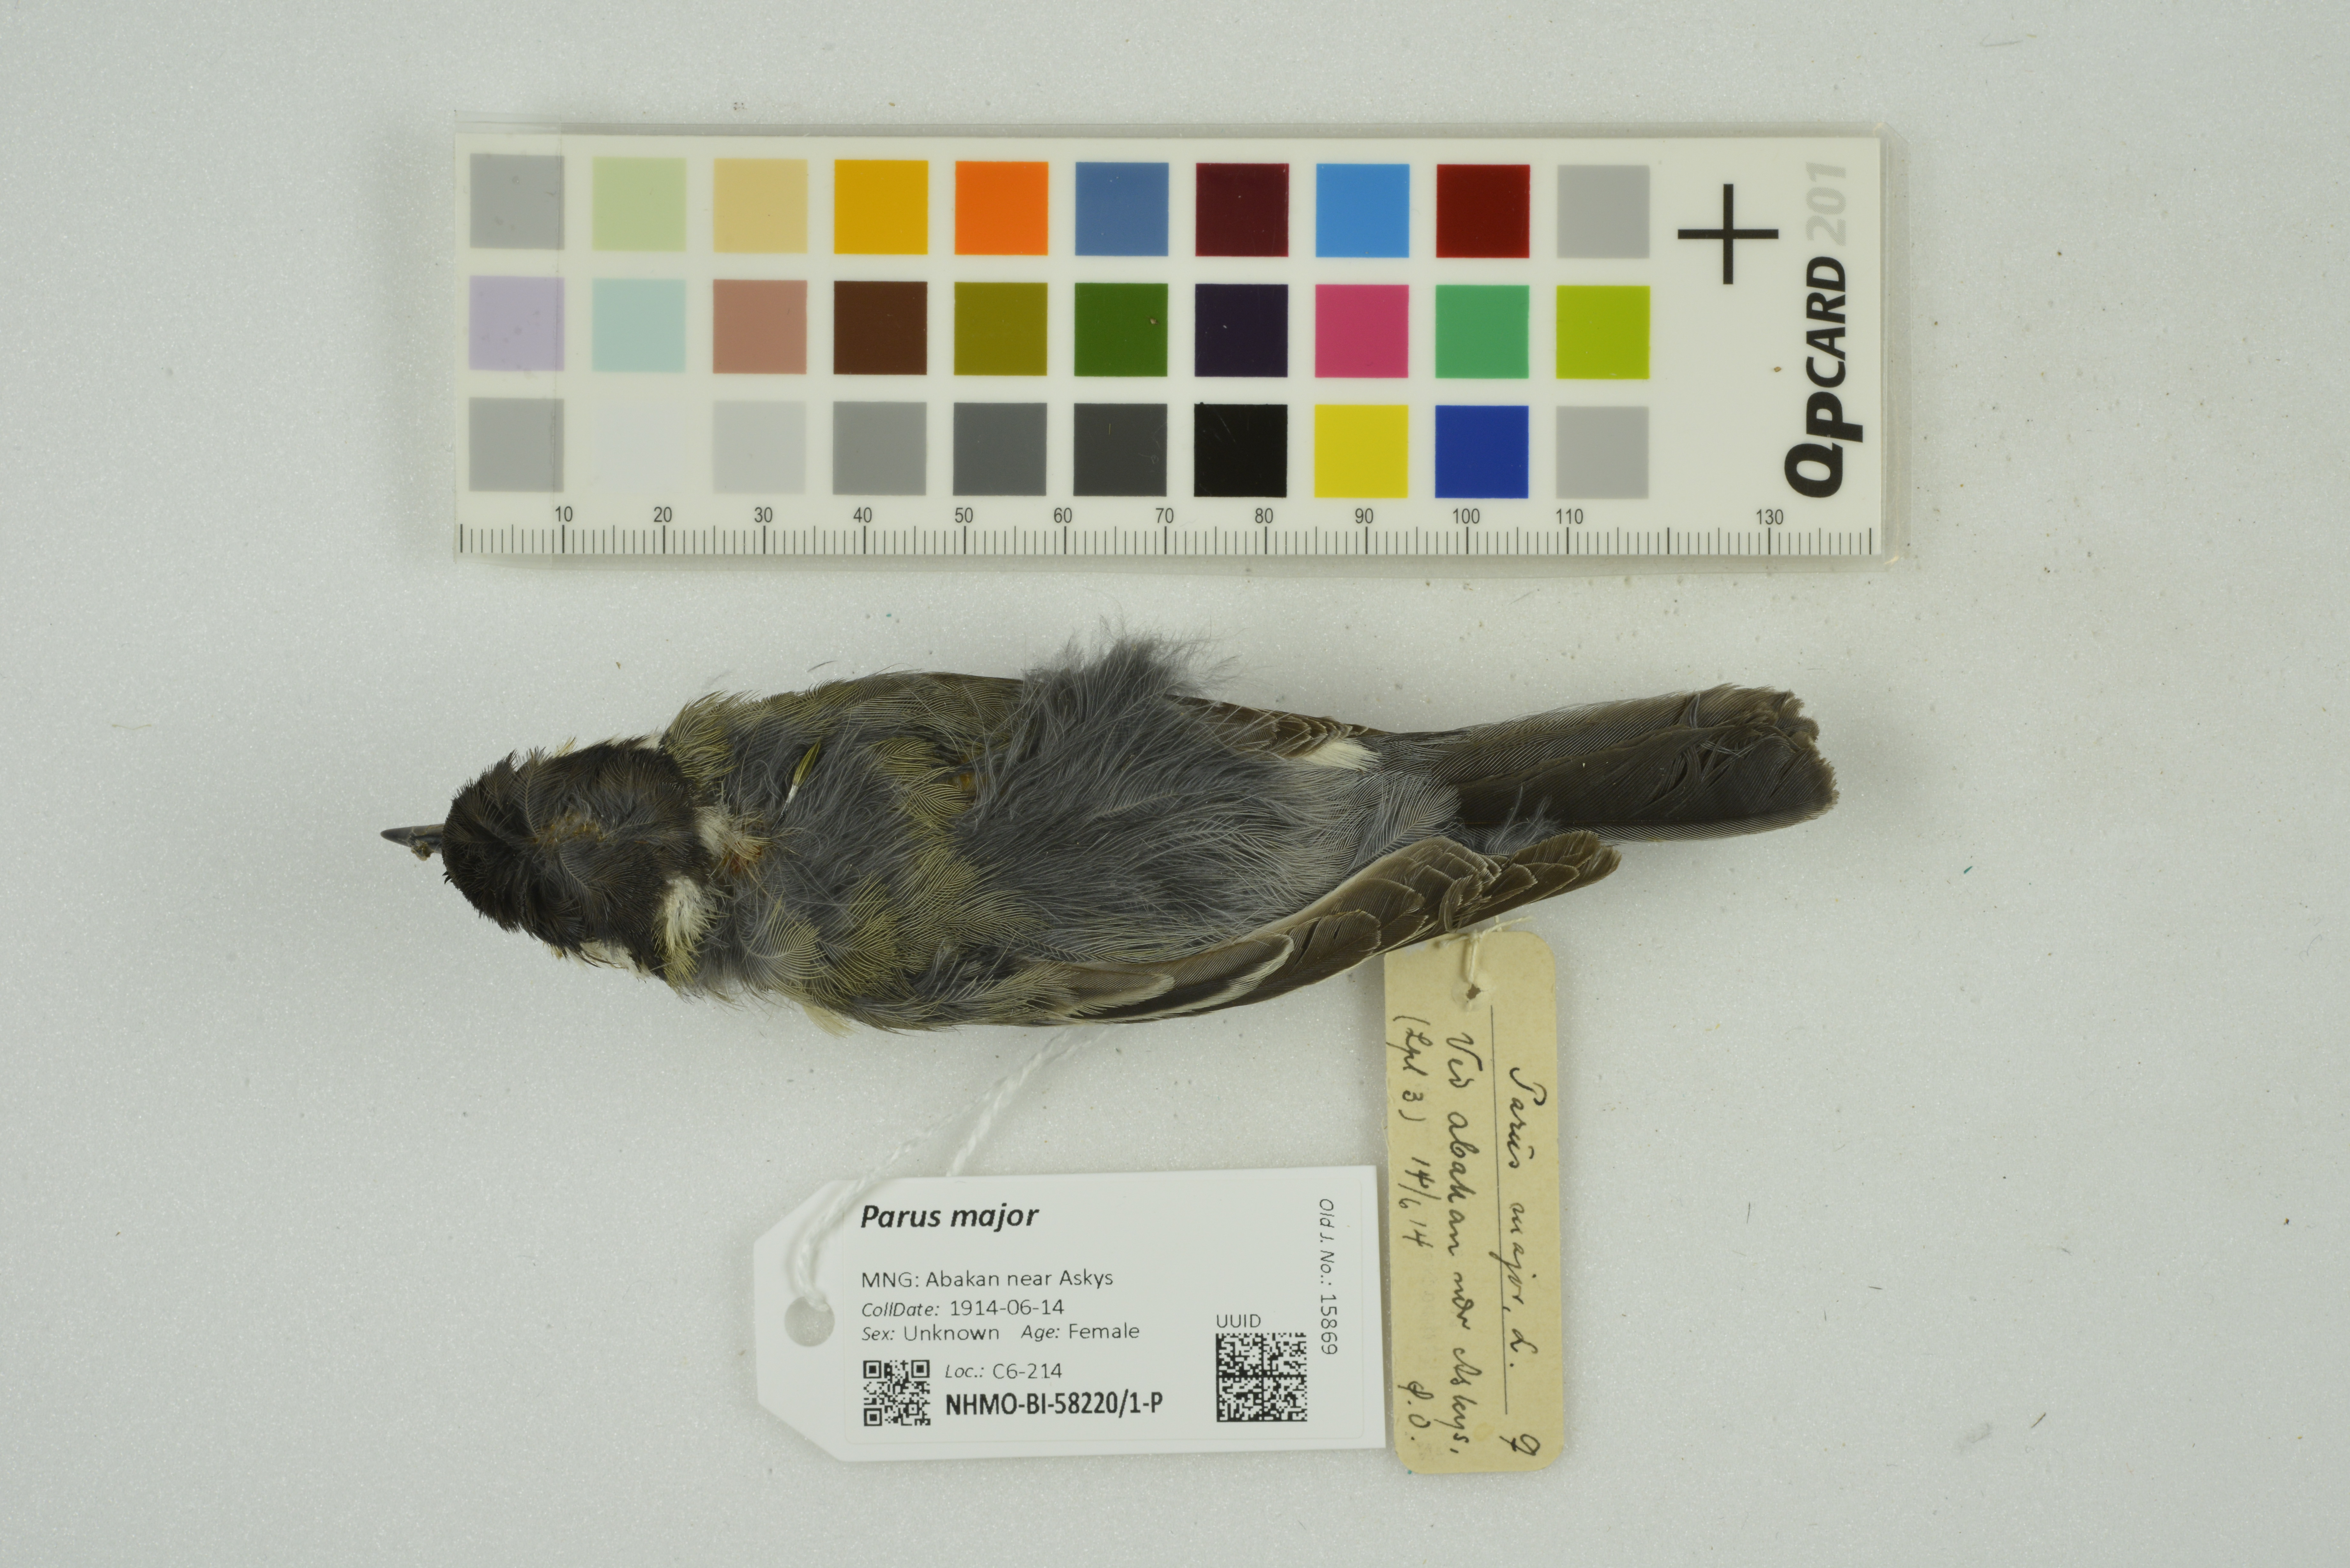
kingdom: Animalia
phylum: Chordata
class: Aves
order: Passeriformes
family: Paridae
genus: Parus
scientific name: Parus major
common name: Great tit
